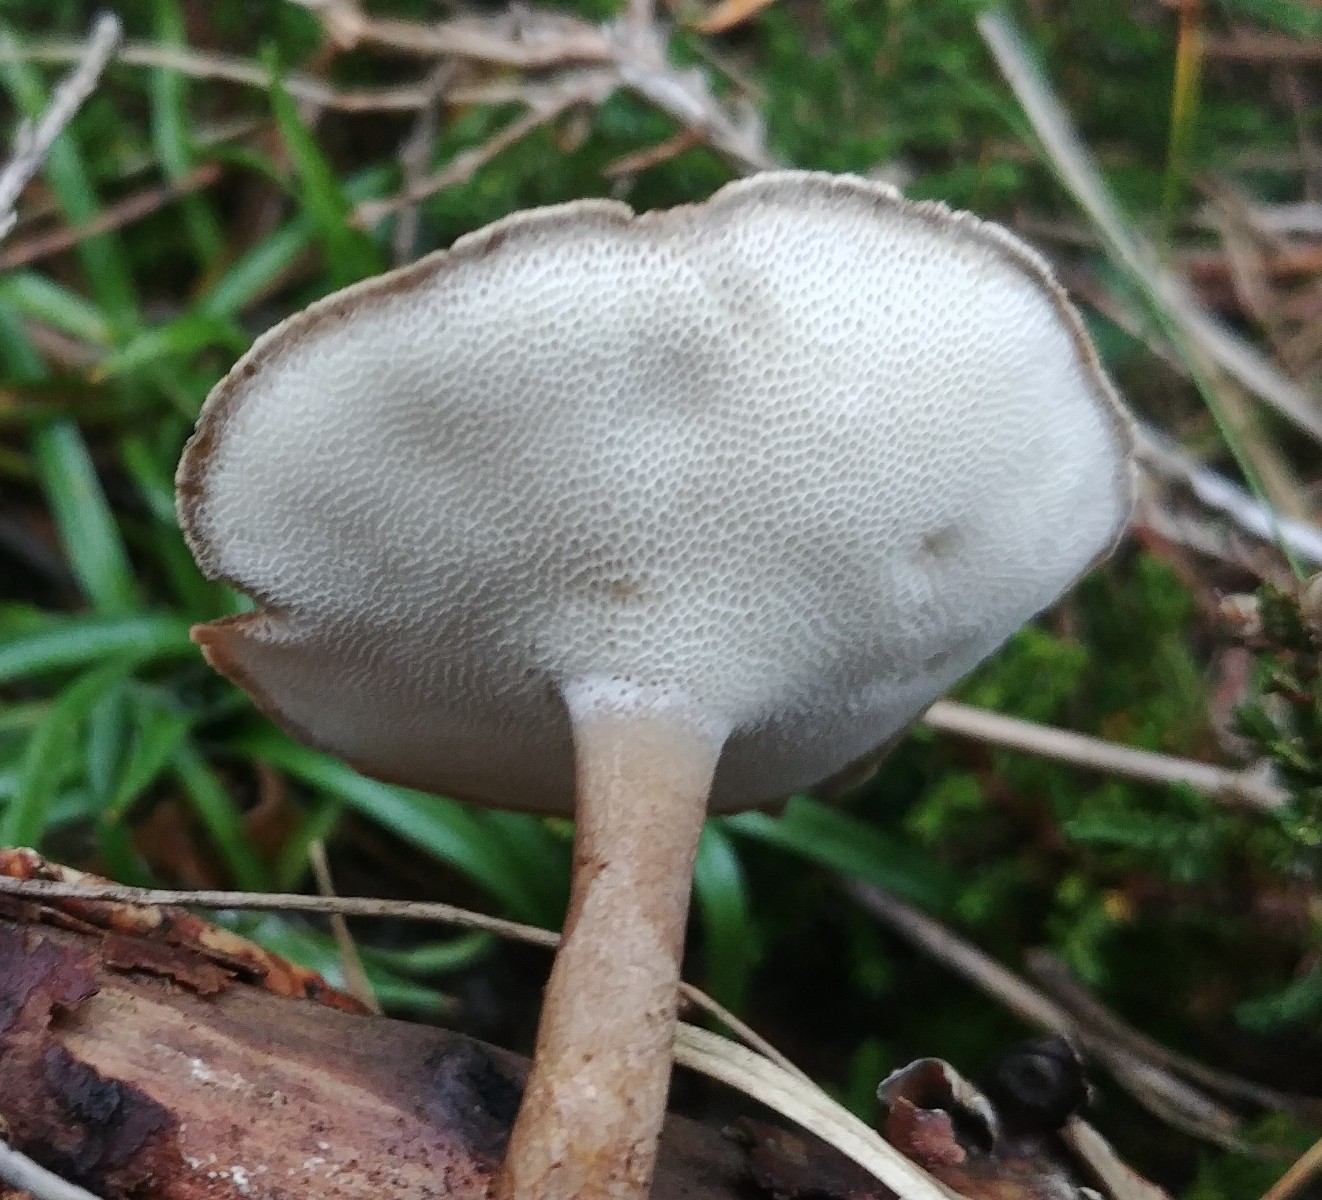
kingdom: Fungi
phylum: Basidiomycota
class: Agaricomycetes
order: Polyporales
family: Polyporaceae
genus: Lentinus
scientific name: Lentinus brumalis
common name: vinter-stilkporesvamp
